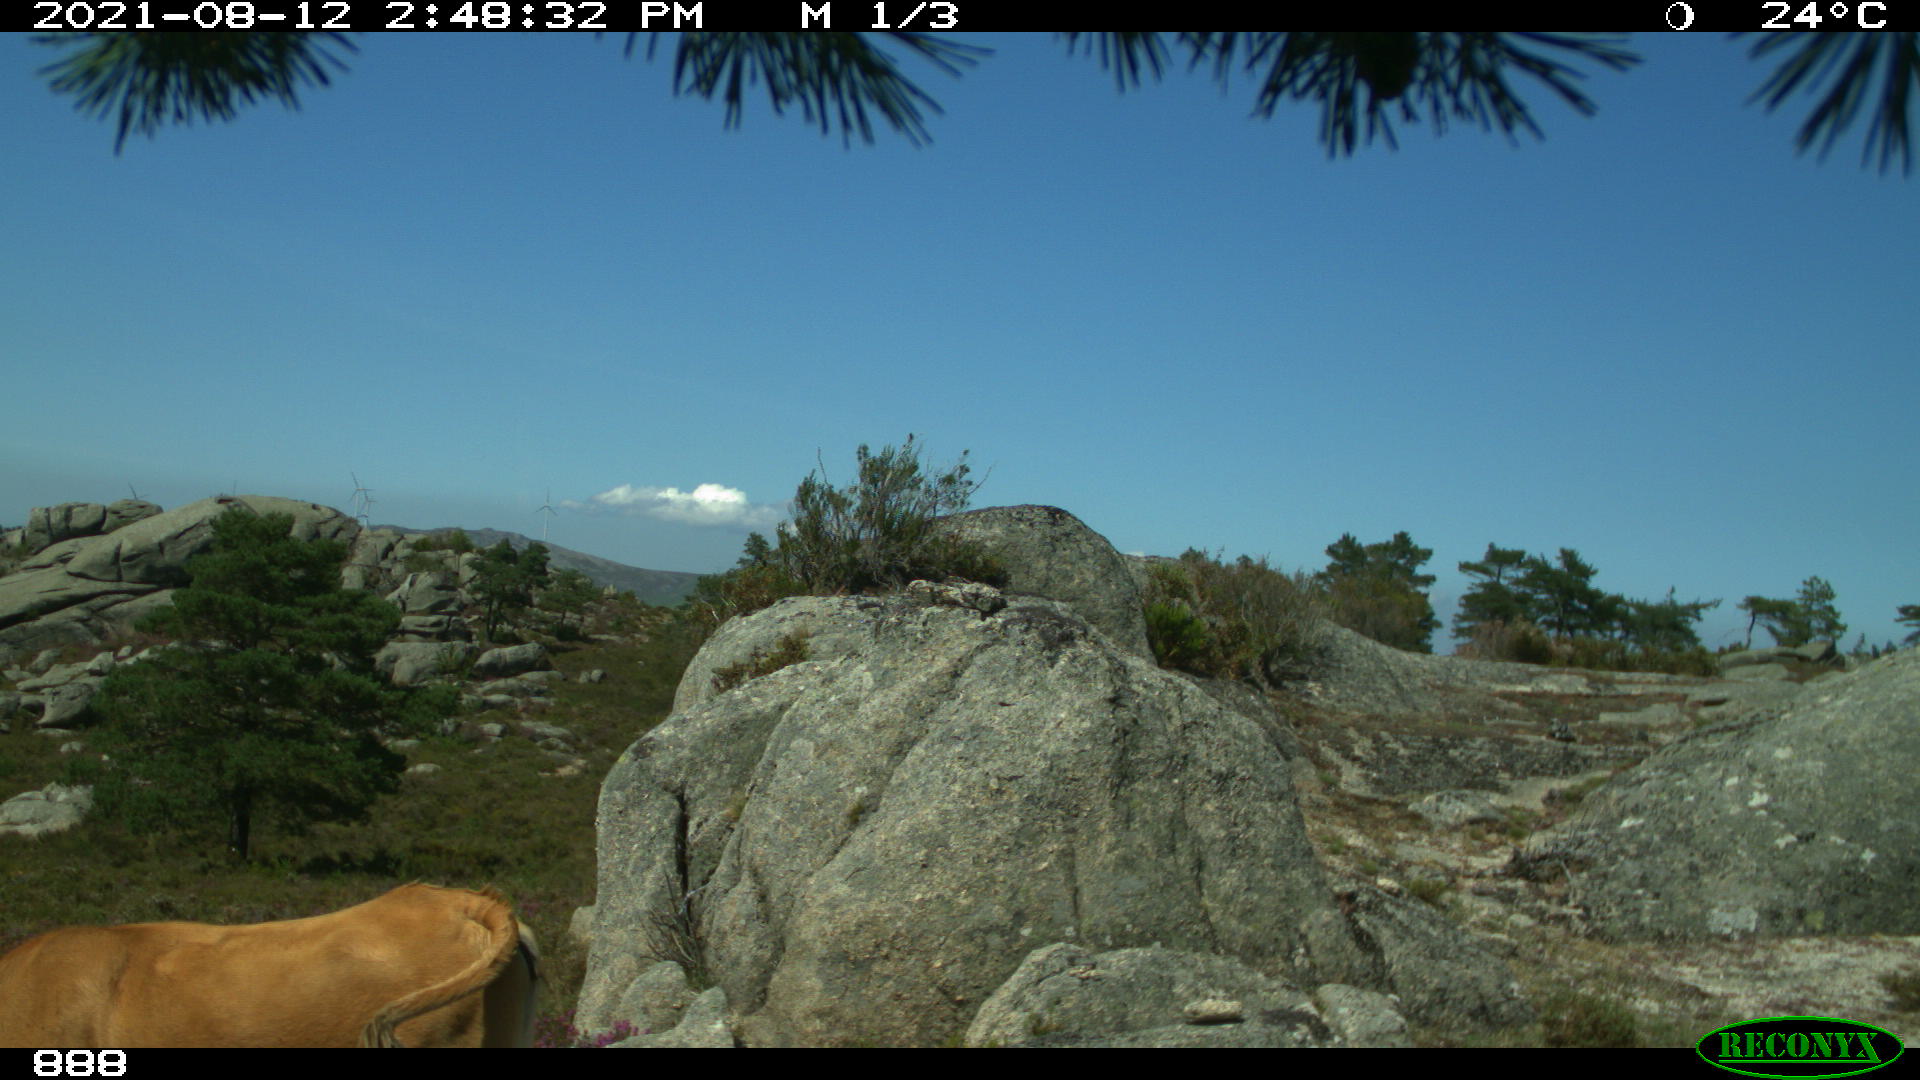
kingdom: Animalia
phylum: Chordata
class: Mammalia
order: Artiodactyla
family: Bovidae
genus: Bos
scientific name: Bos taurus
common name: Domesticated cattle
